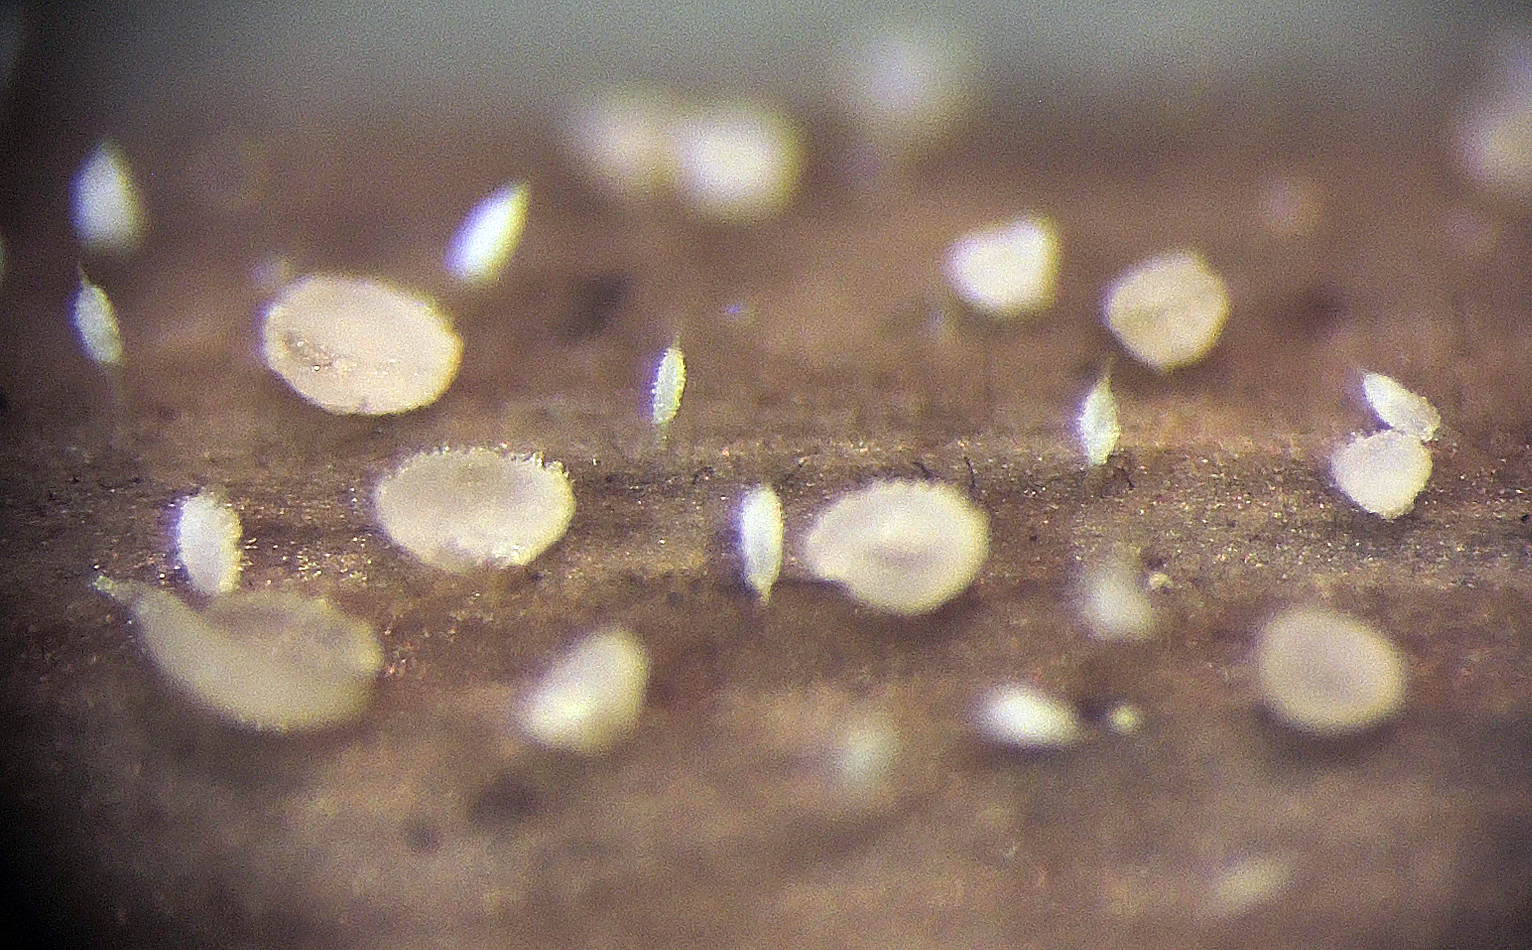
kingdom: Fungi
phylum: Basidiomycota
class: Agaricomycetes
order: Gomphales
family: Gomphaceae
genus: Ceratellopsis
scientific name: Ceratellopsis acuminata
